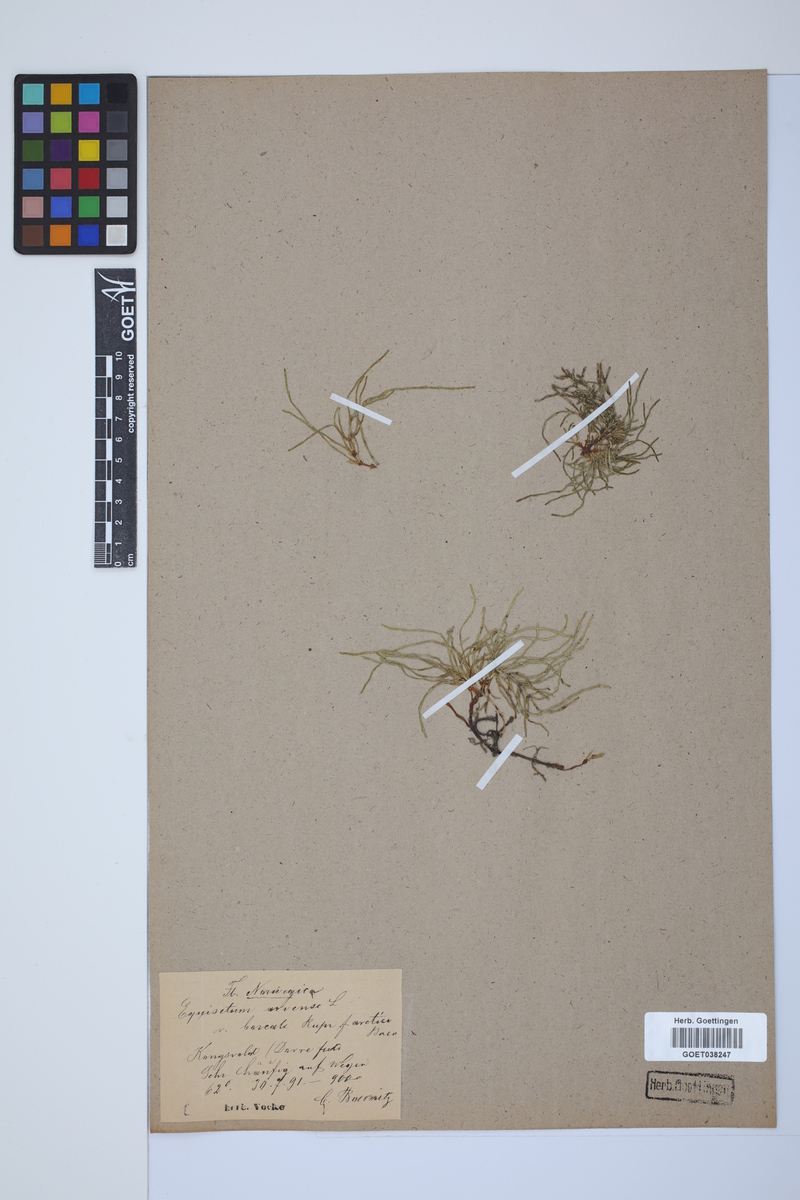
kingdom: Plantae
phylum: Tracheophyta
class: Polypodiopsida
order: Equisetales
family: Equisetaceae
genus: Equisetum
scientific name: Equisetum arvense
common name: Field horsetail
